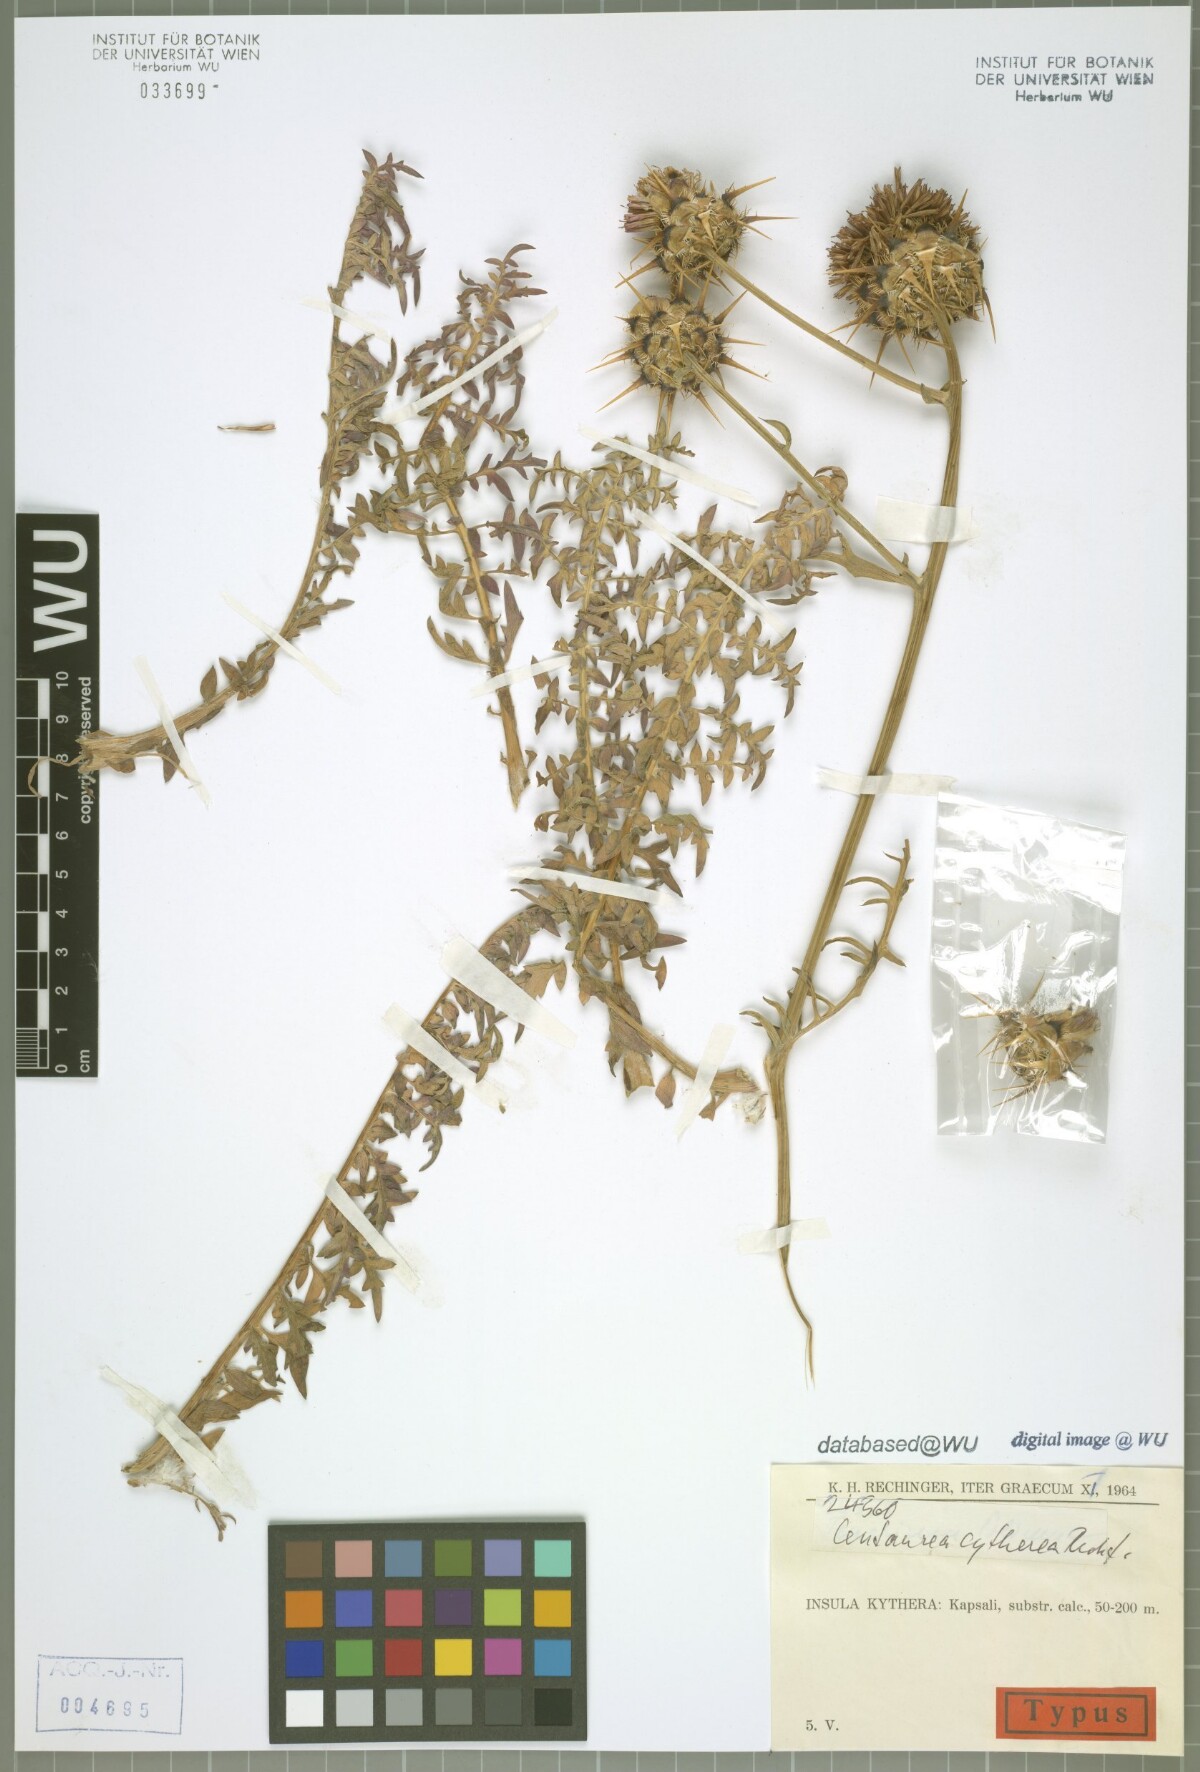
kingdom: Plantae
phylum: Tracheophyta
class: Magnoliopsida
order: Asterales
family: Asteraceae
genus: Centaurea
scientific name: Centaurea redempta
